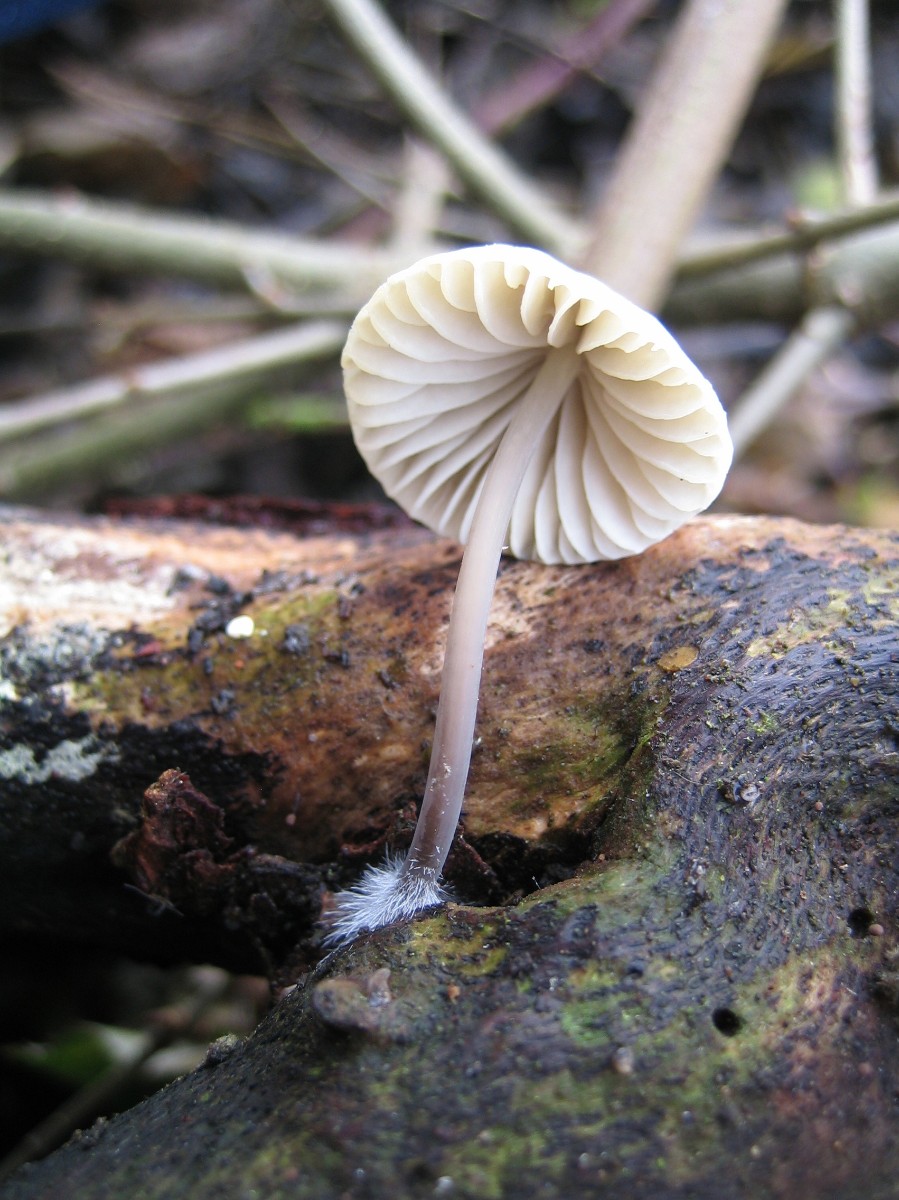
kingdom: Fungi
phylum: Basidiomycota
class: Agaricomycetes
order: Agaricales
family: Mycenaceae
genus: Mycena
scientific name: Mycena arcangeliana
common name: oliven-huesvamp
